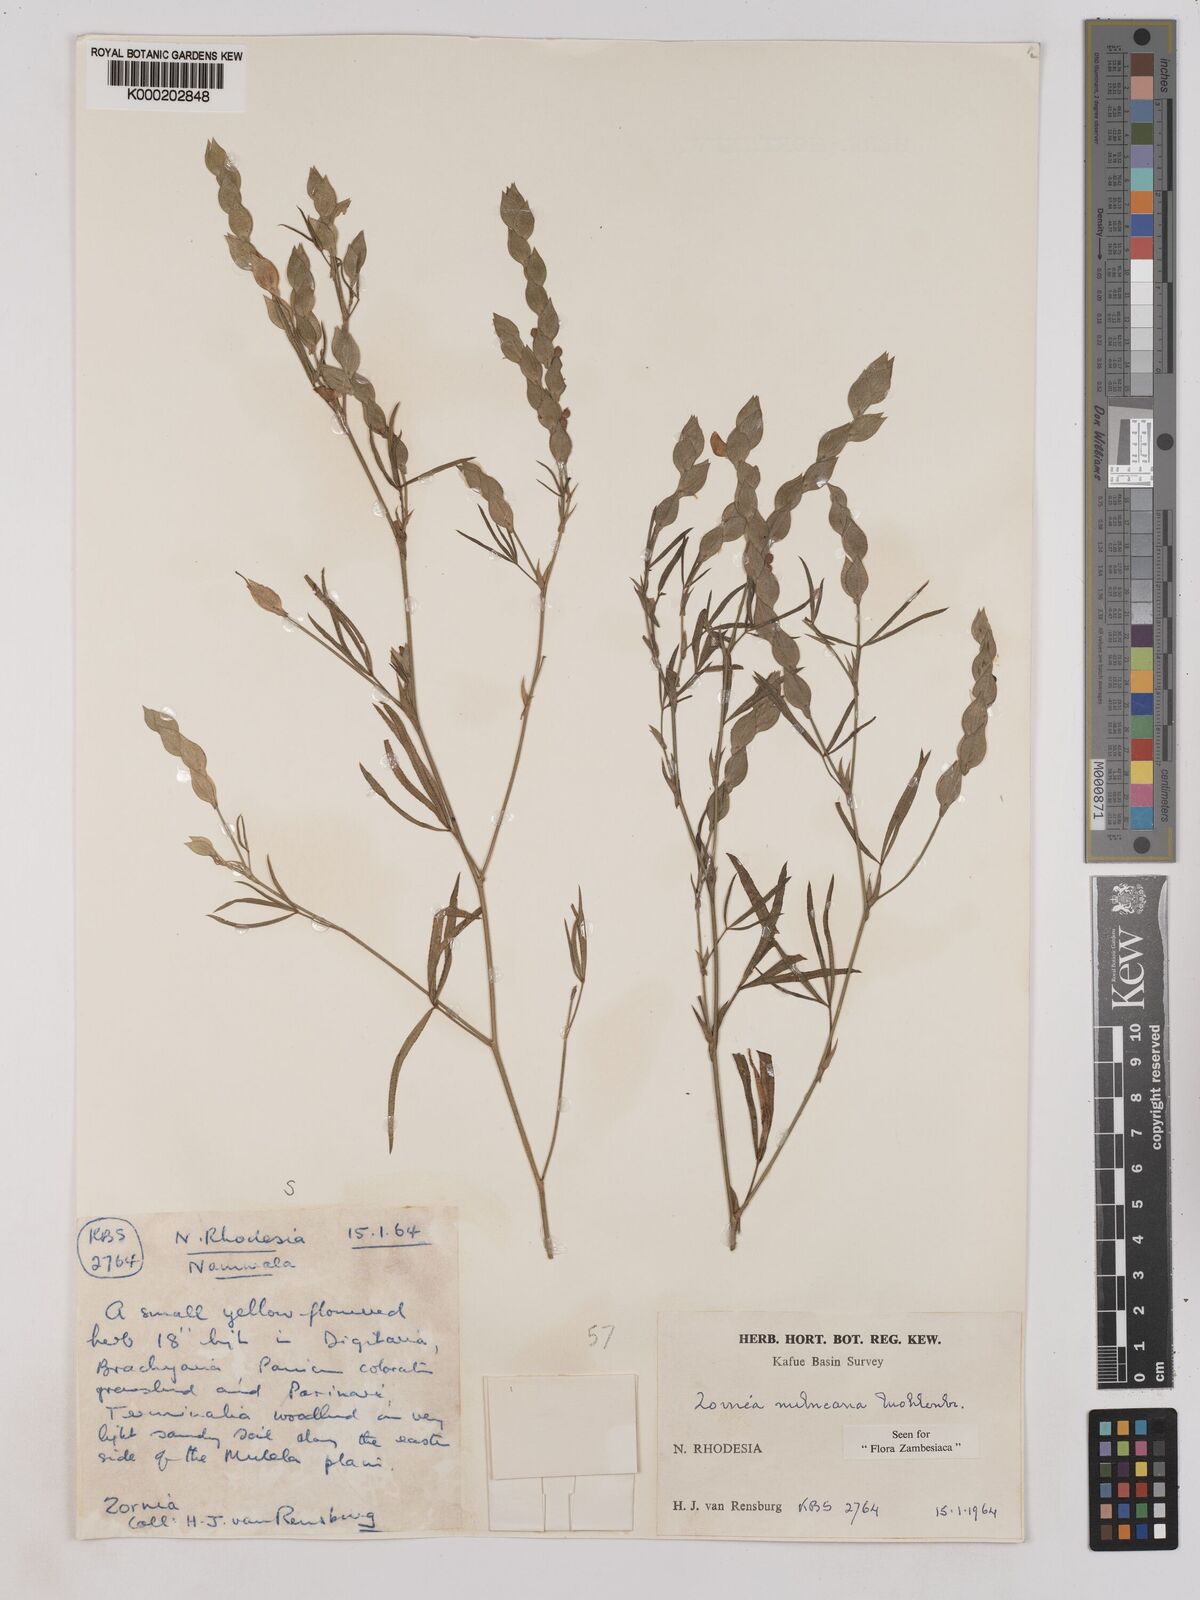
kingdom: Plantae
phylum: Tracheophyta
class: Magnoliopsida
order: Fabales
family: Fabaceae
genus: Zornia
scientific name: Zornia milneana
